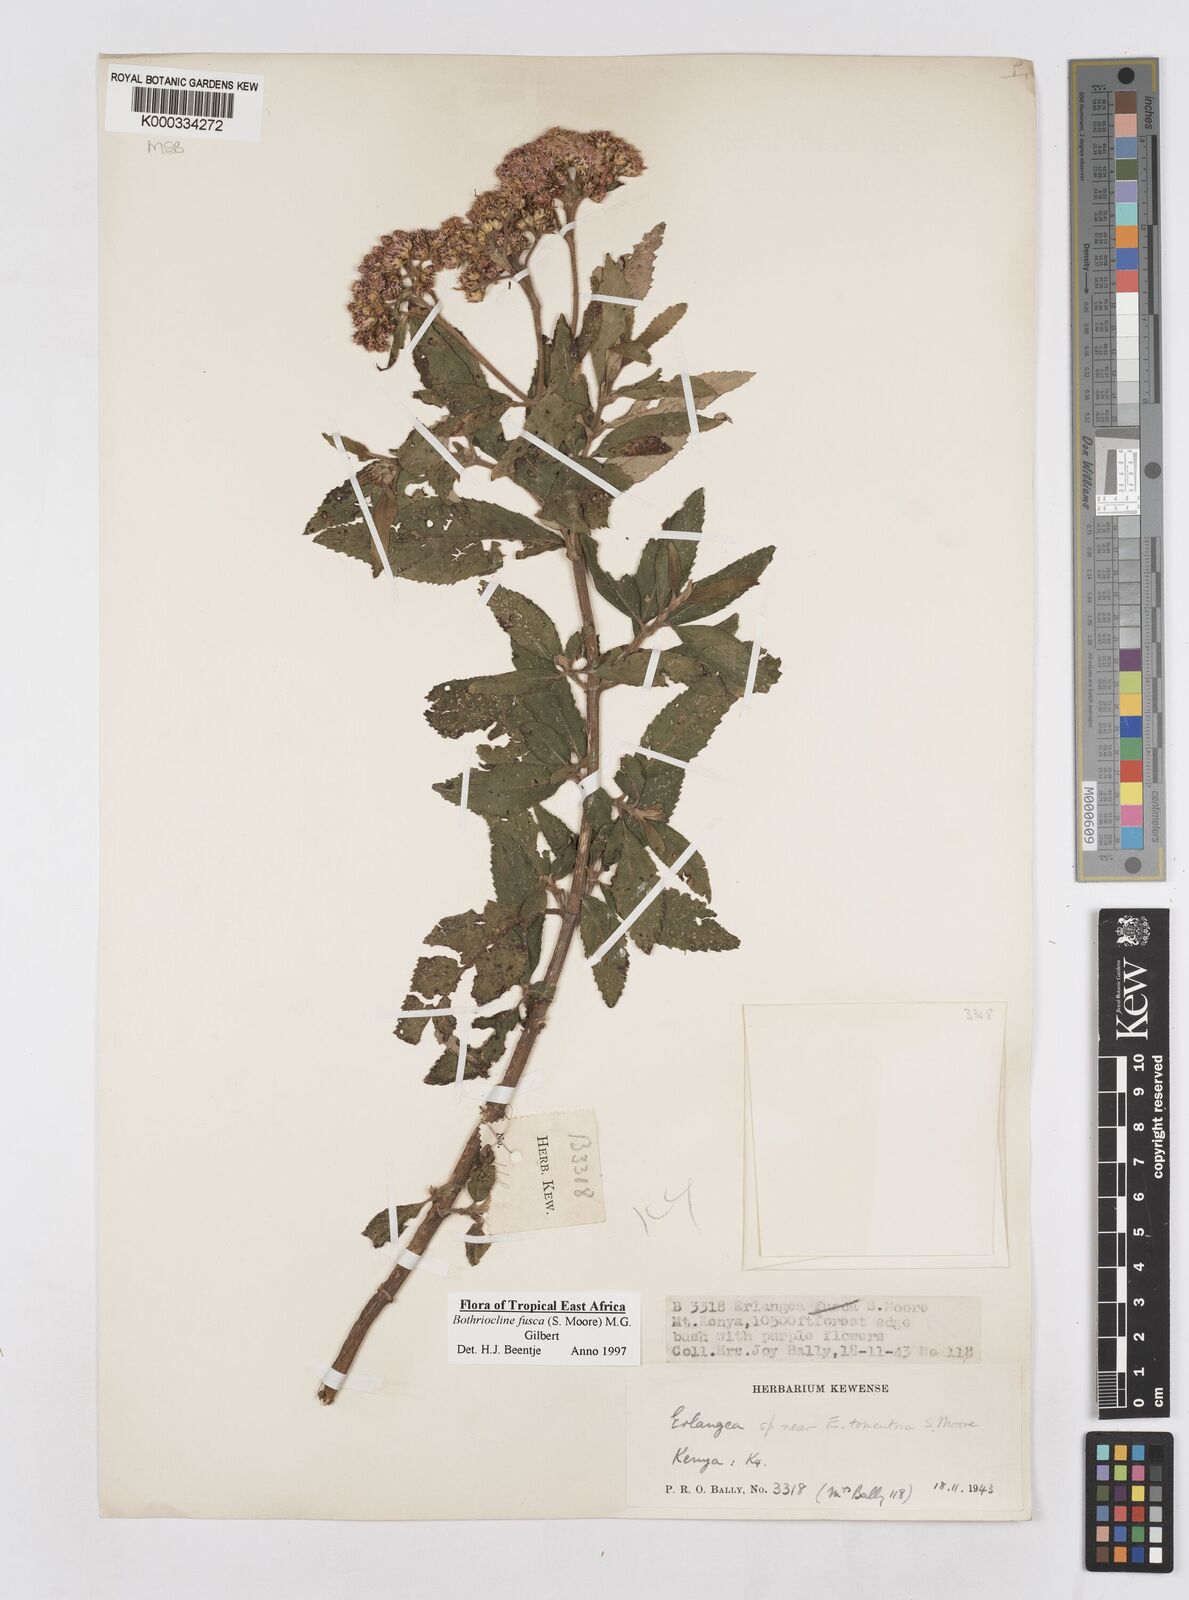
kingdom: Plantae
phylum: Tracheophyta
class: Magnoliopsida
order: Asterales
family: Asteraceae
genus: Bothriocline
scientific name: Bothriocline fusca
